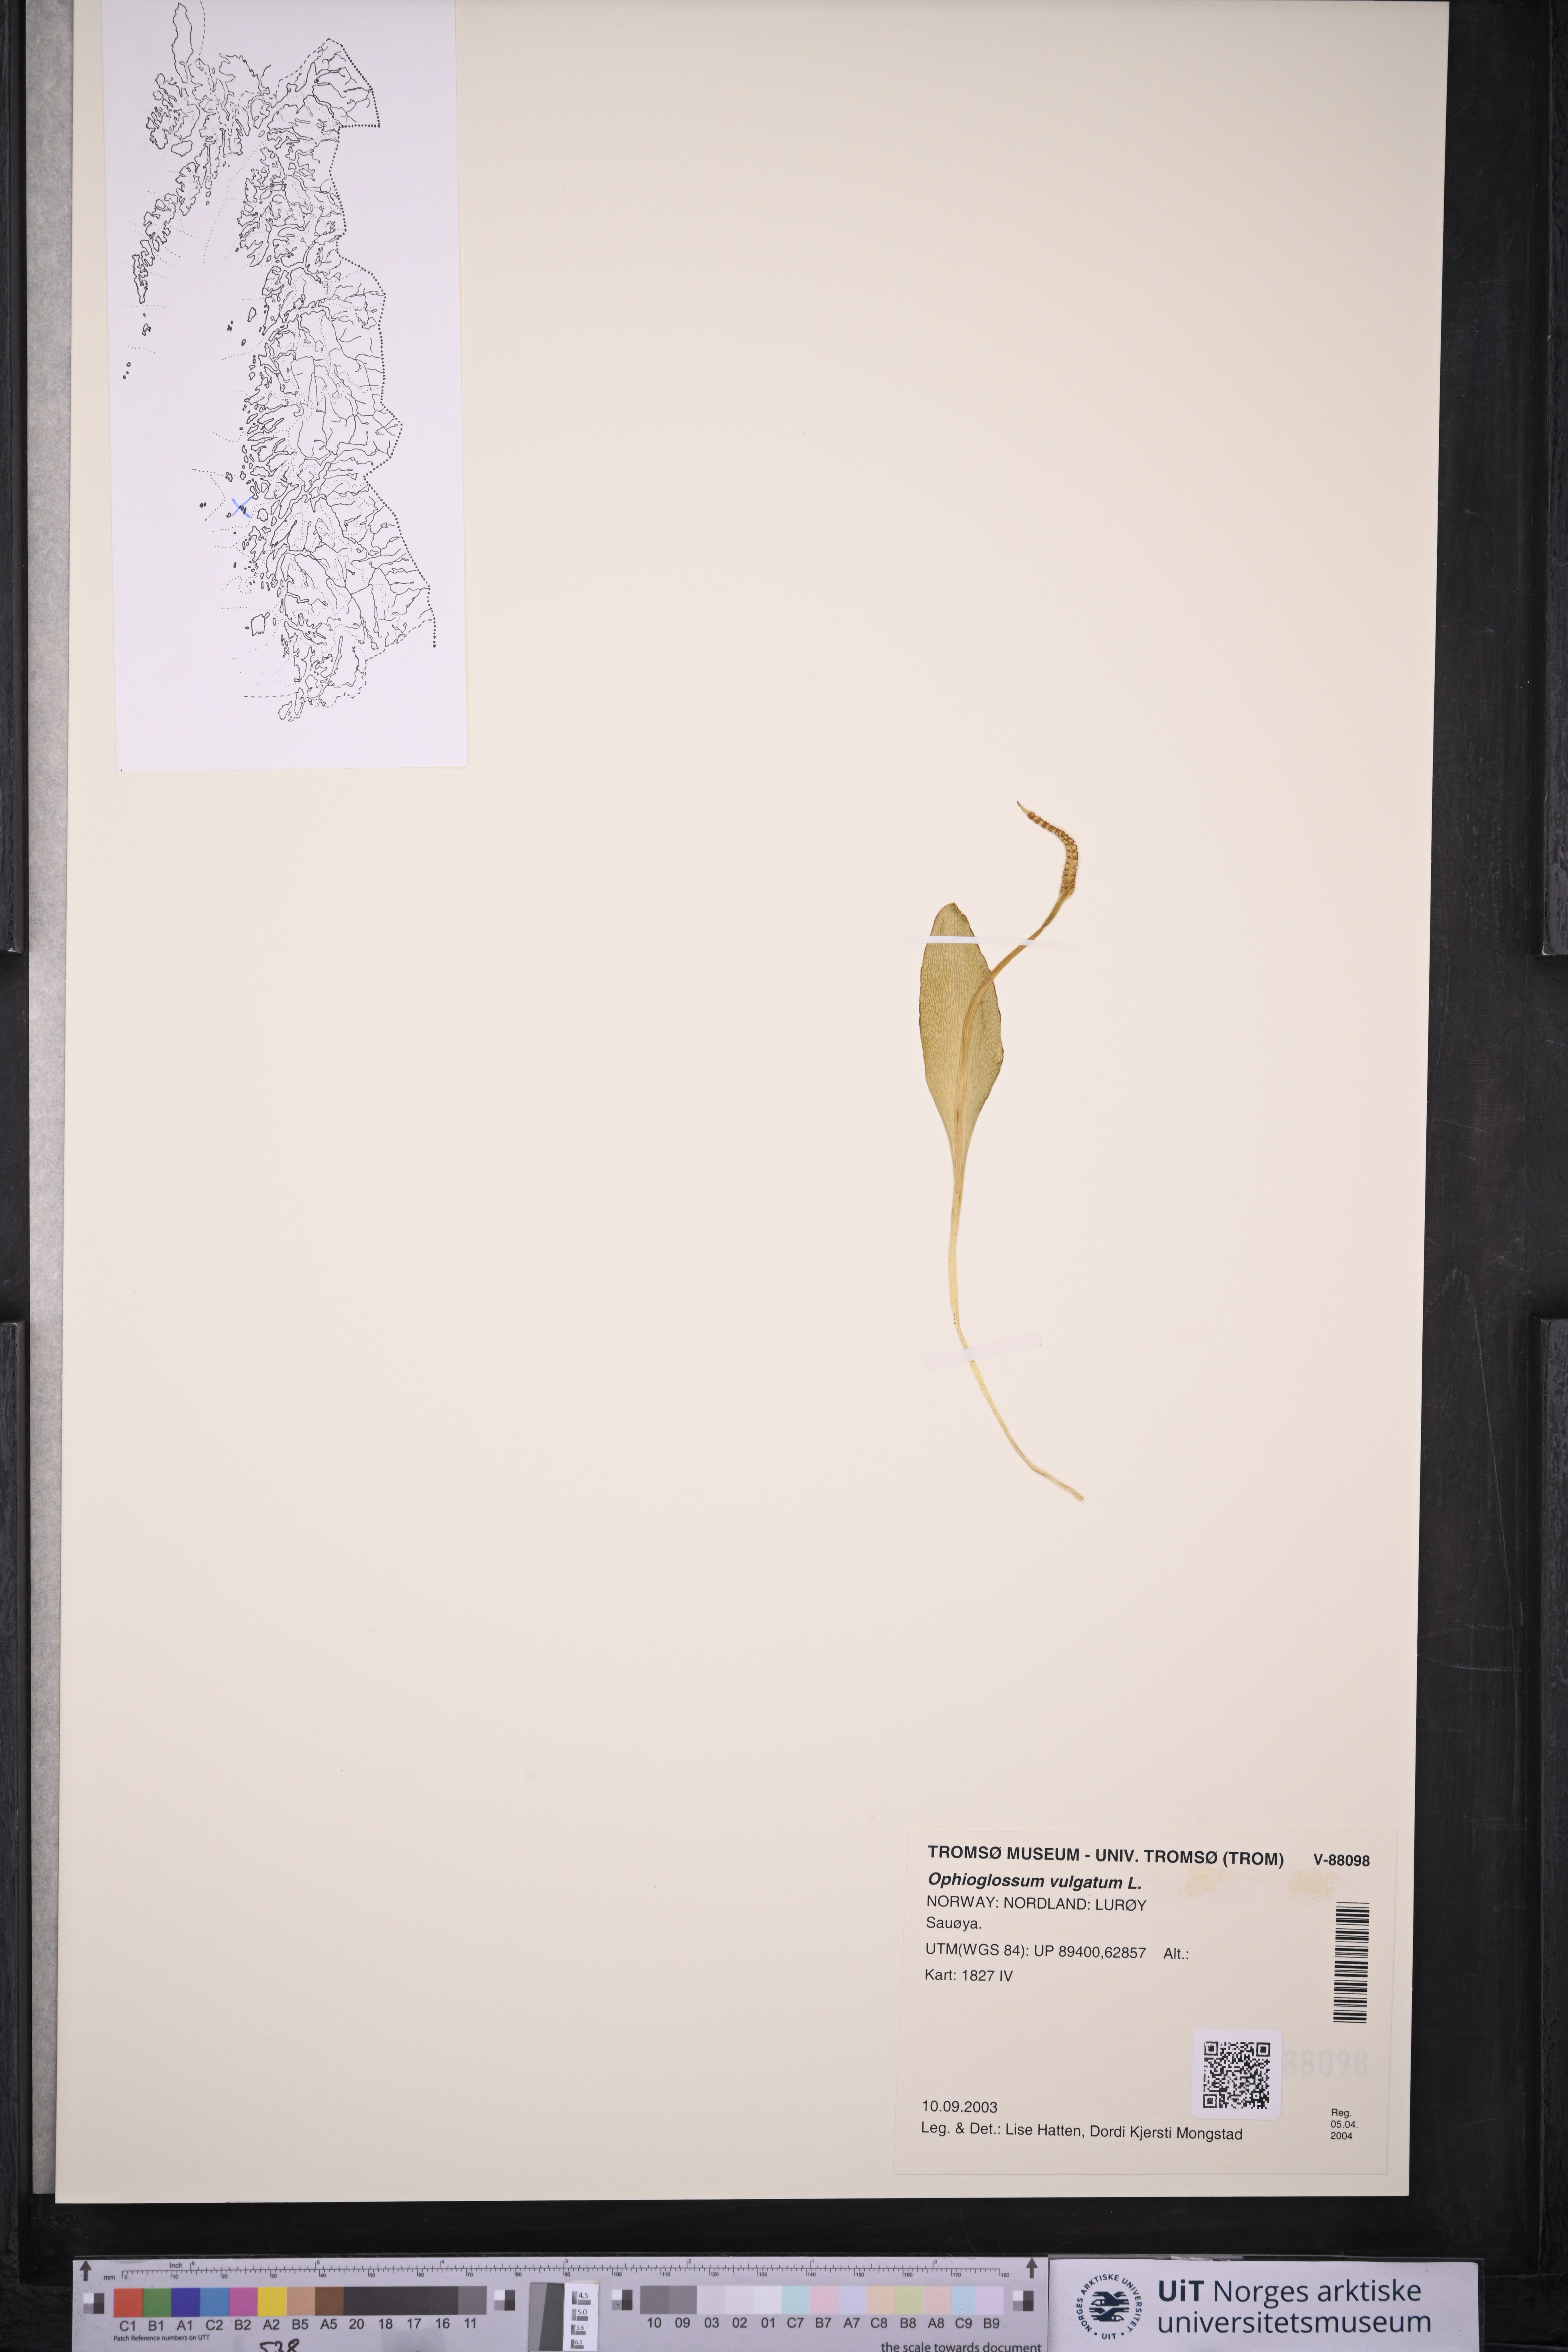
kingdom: Plantae
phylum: Tracheophyta
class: Polypodiopsida
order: Ophioglossales
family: Ophioglossaceae
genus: Ophioglossum
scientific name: Ophioglossum vulgatum
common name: Adder's-tongue
